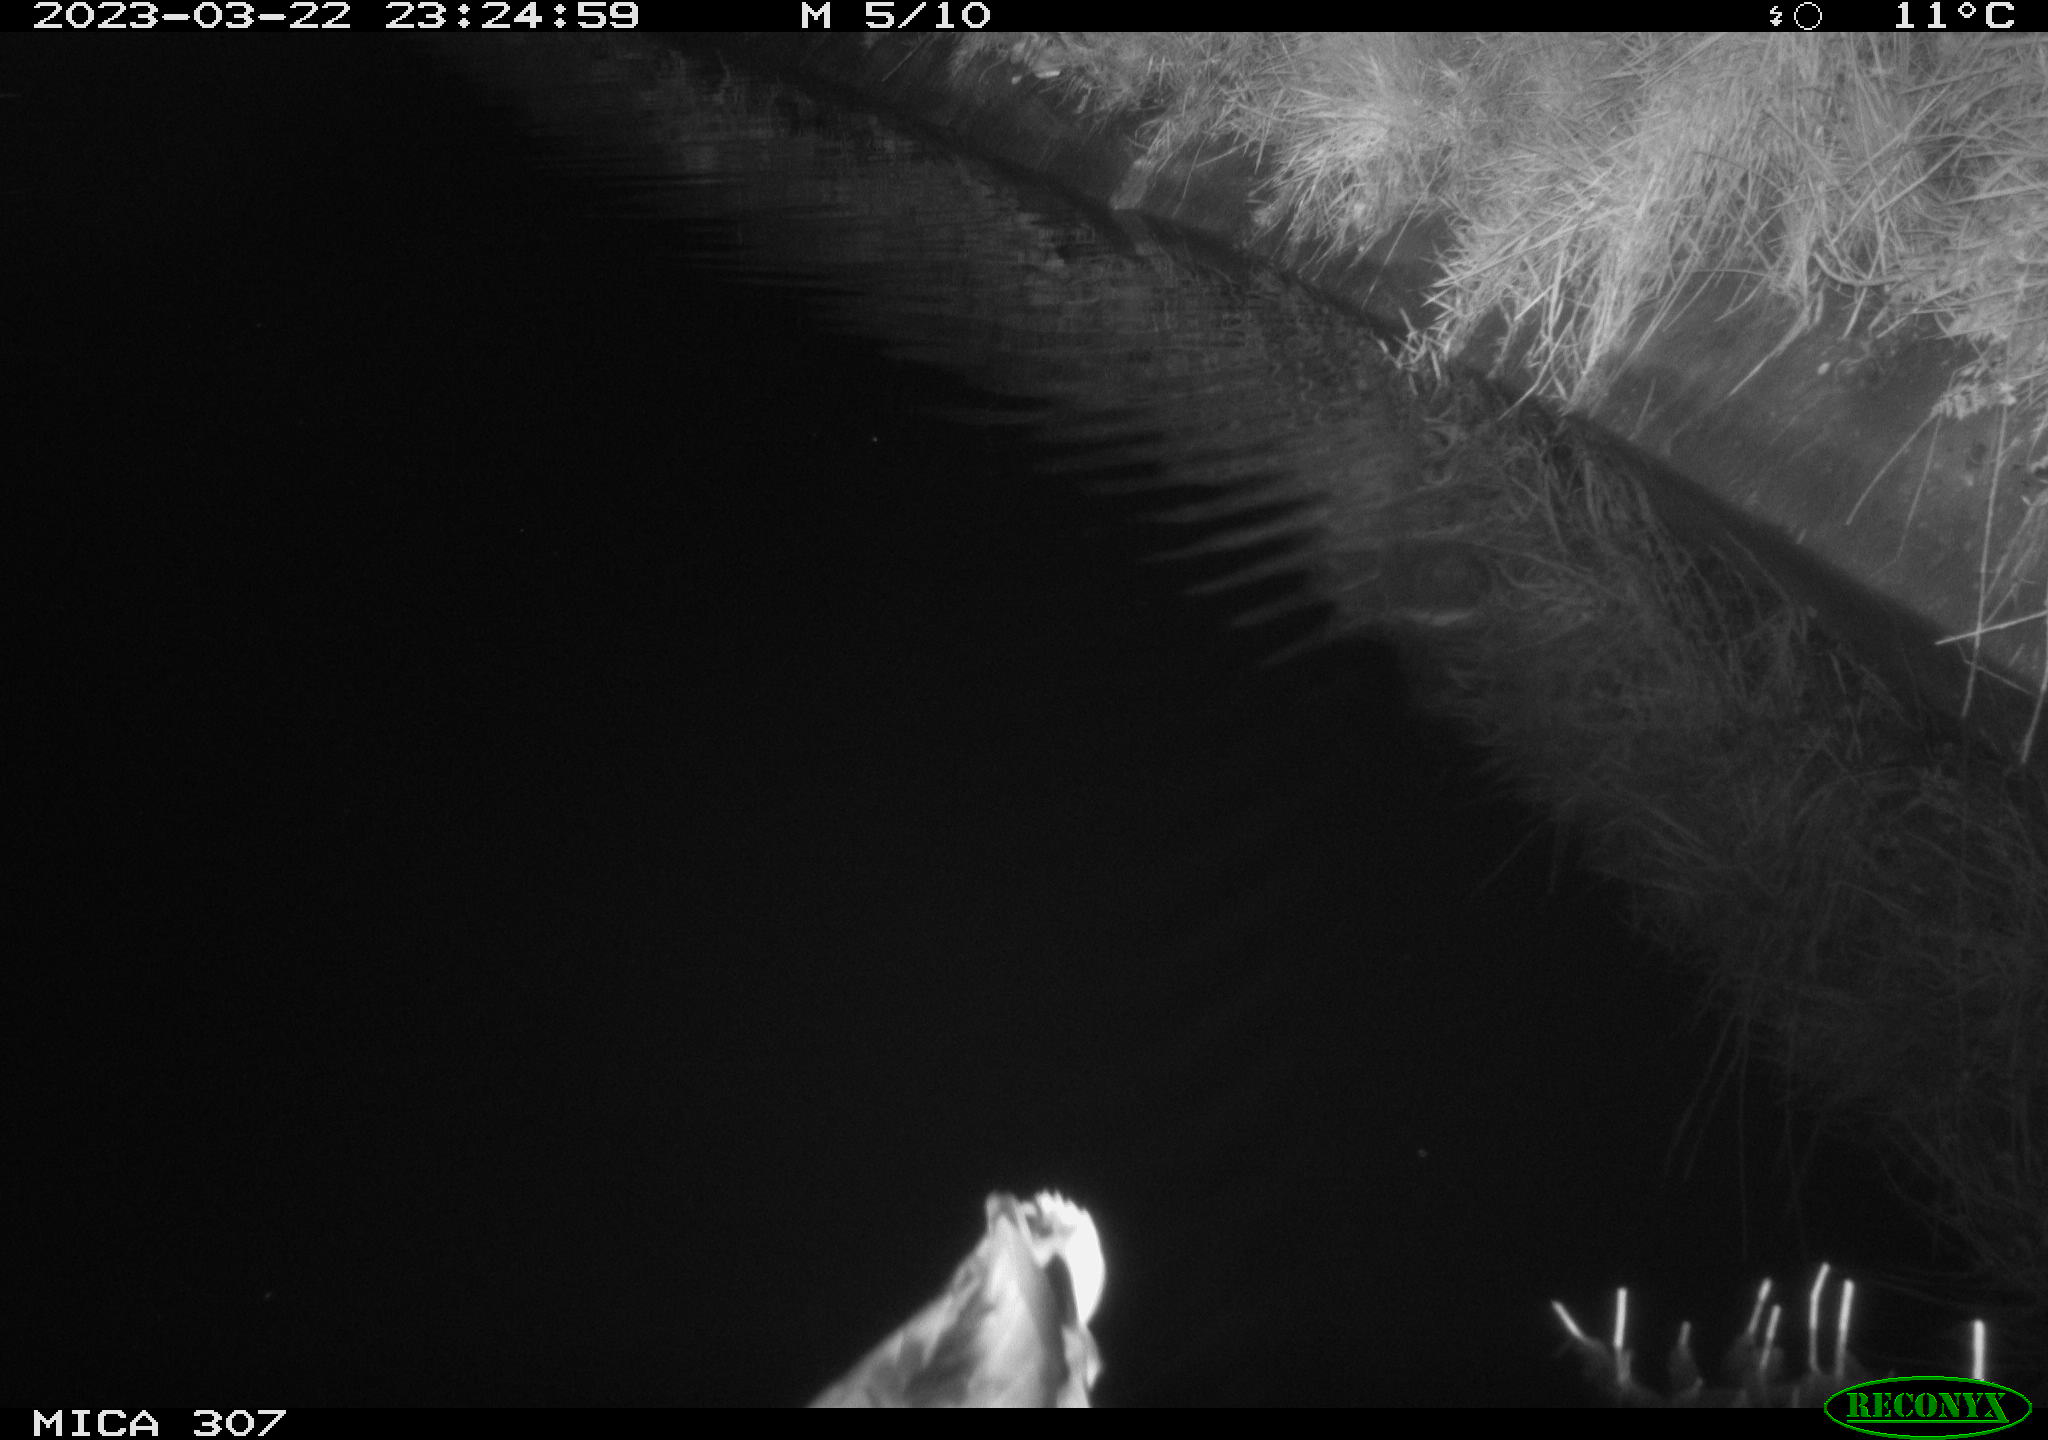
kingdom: Animalia
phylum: Chordata
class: Aves
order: Anseriformes
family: Anatidae
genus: Anas
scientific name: Anas
